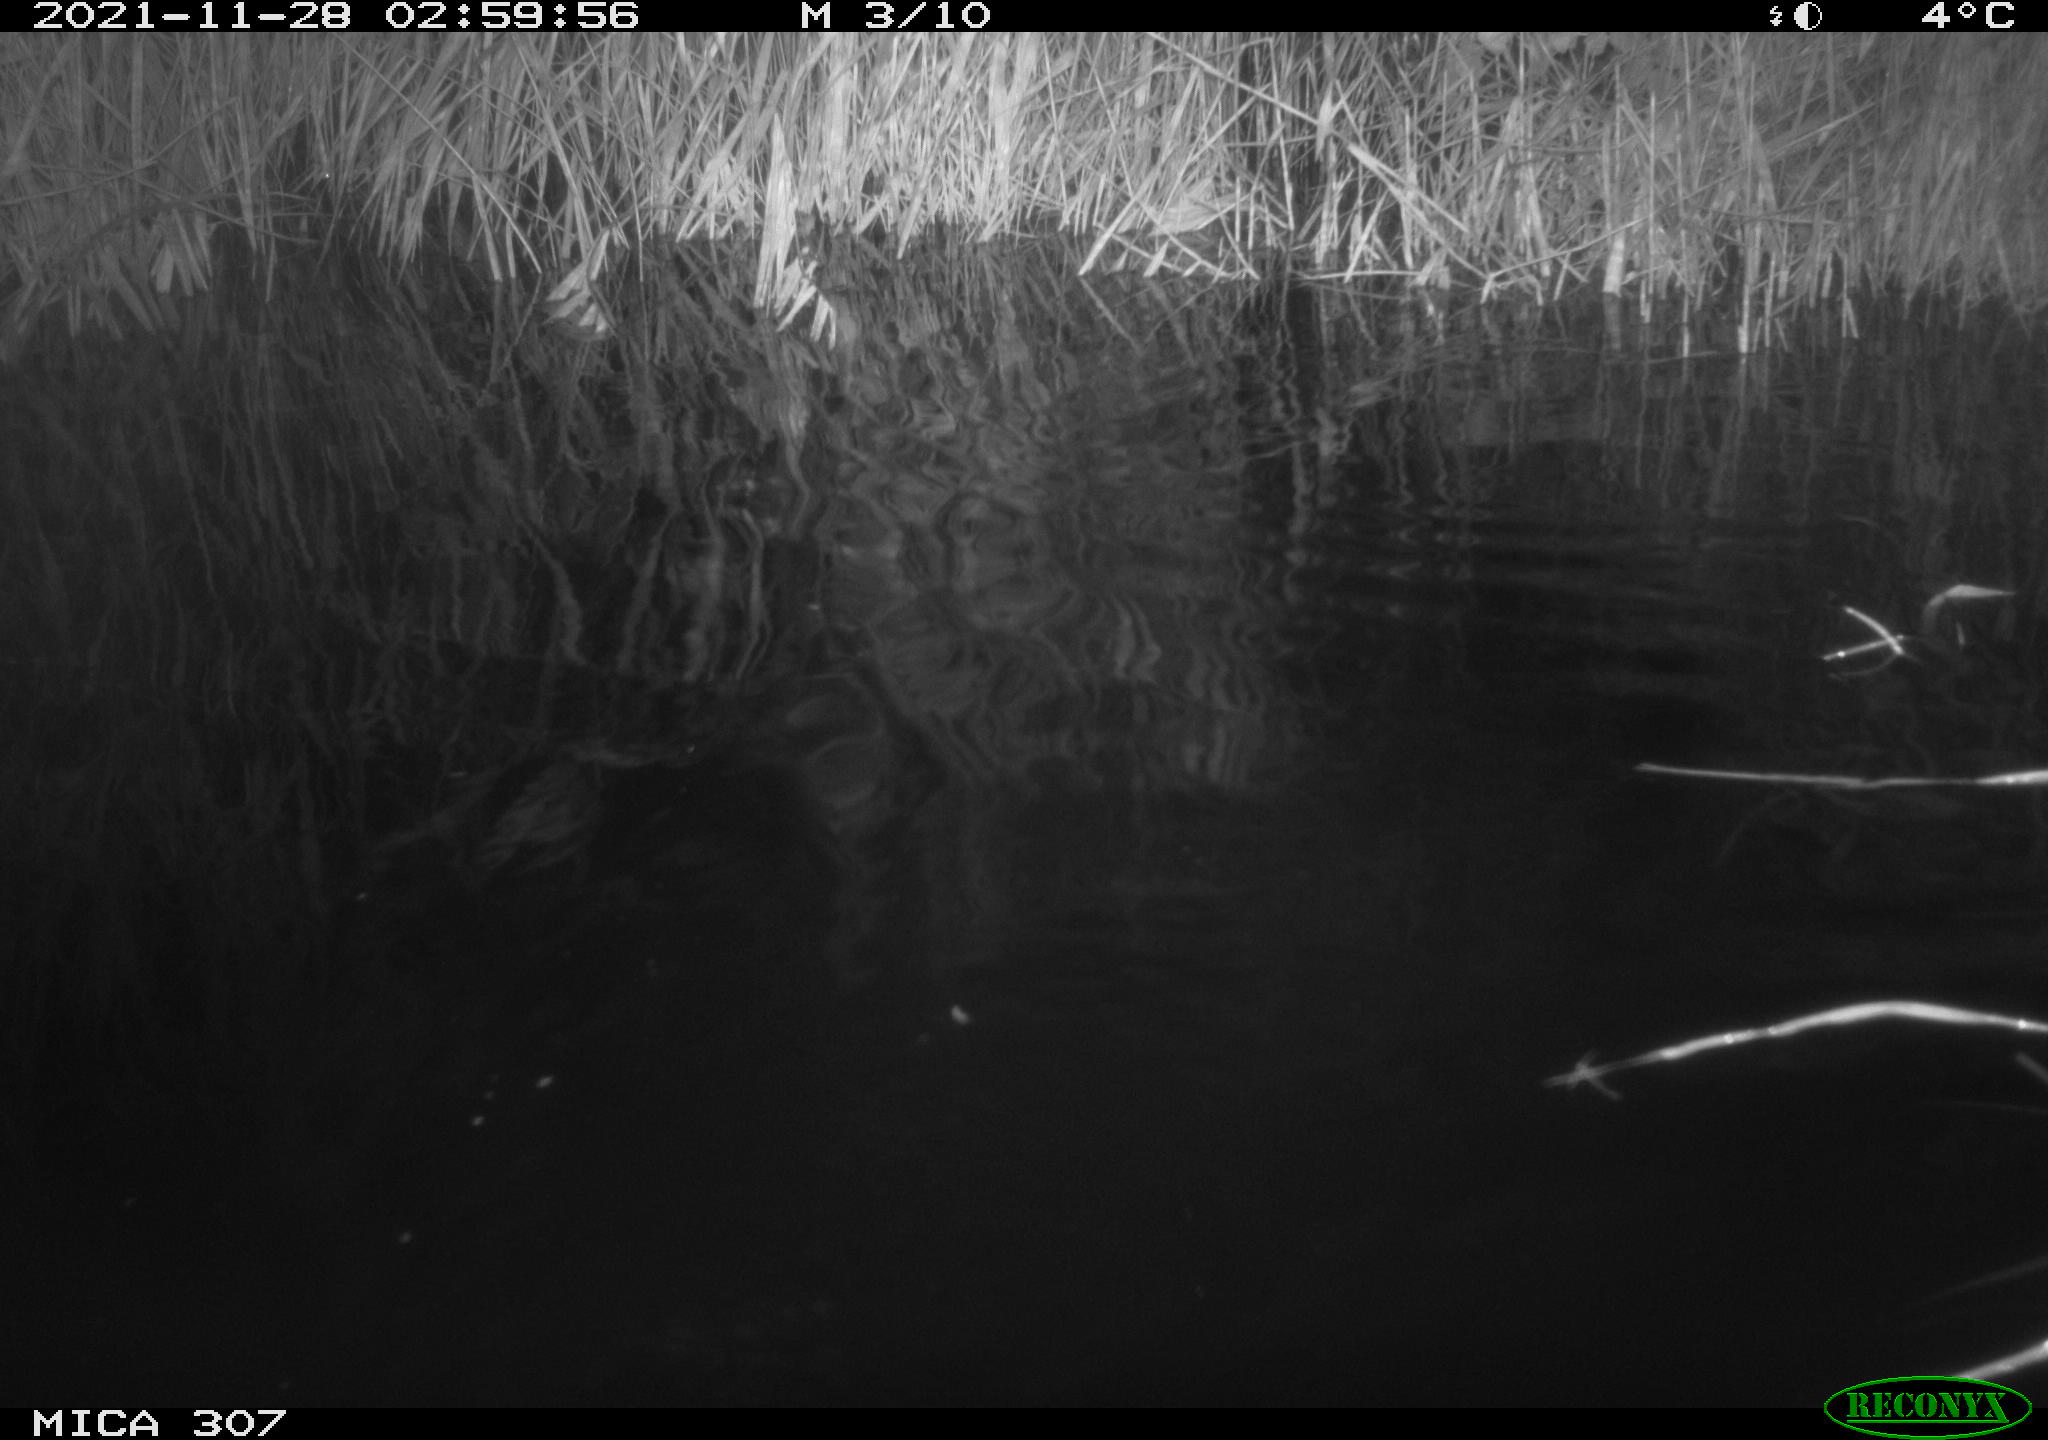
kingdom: Animalia
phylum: Chordata
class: Mammalia
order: Rodentia
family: Muridae
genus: Rattus
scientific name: Rattus norvegicus
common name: Brown rat
